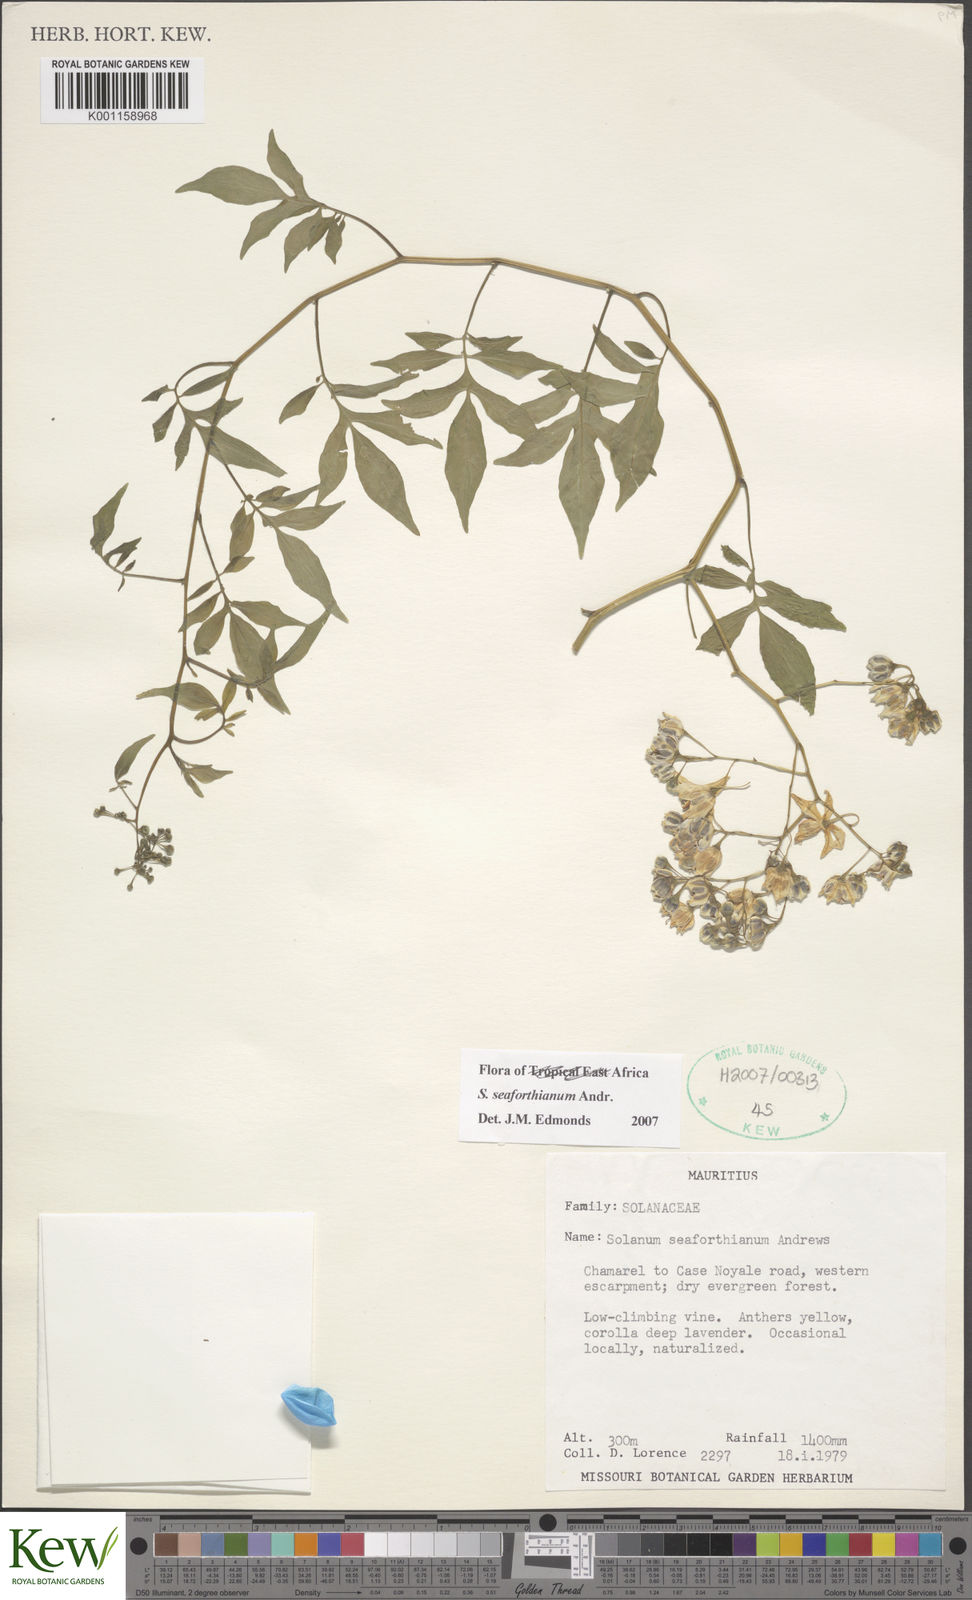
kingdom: Plantae
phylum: Tracheophyta
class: Magnoliopsida
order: Solanales
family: Solanaceae
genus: Solanum
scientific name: Solanum seaforthianum
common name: Brazilian nightshade
